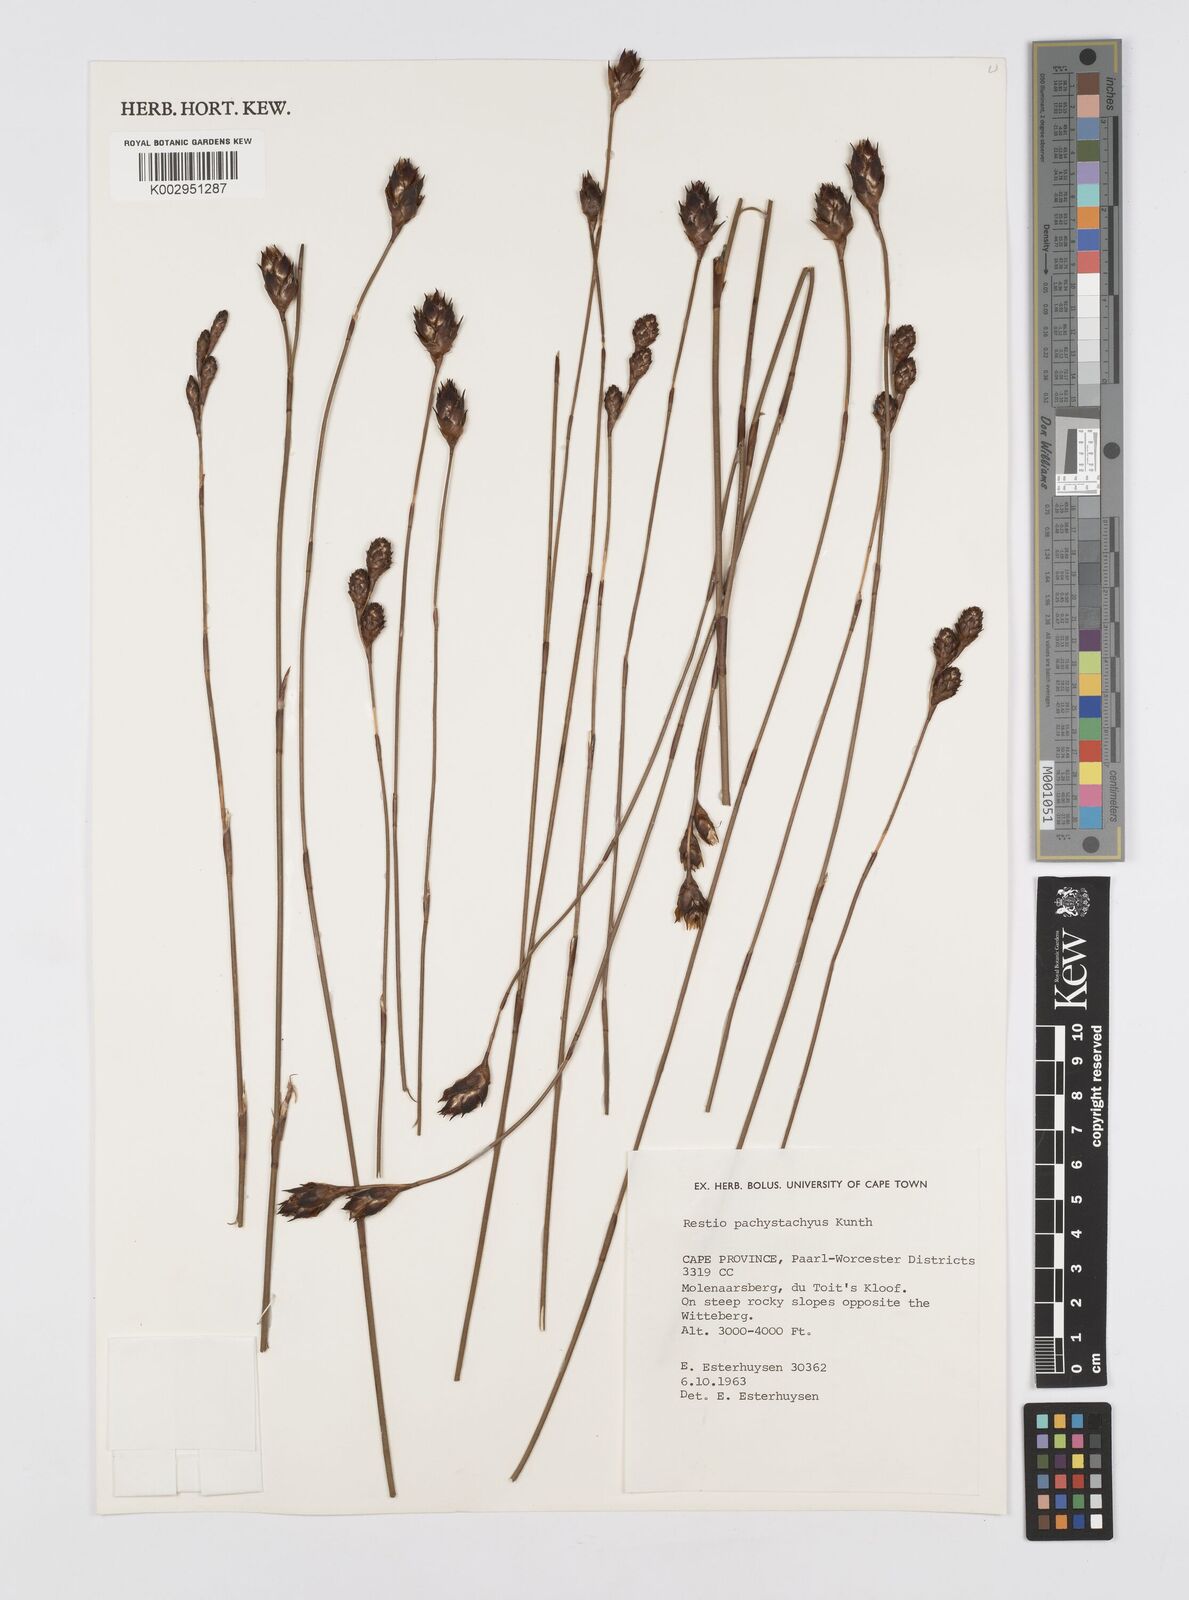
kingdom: Plantae
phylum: Tracheophyta
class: Liliopsida
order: Poales
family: Restionaceae
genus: Restio
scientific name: Restio pachystachyus
